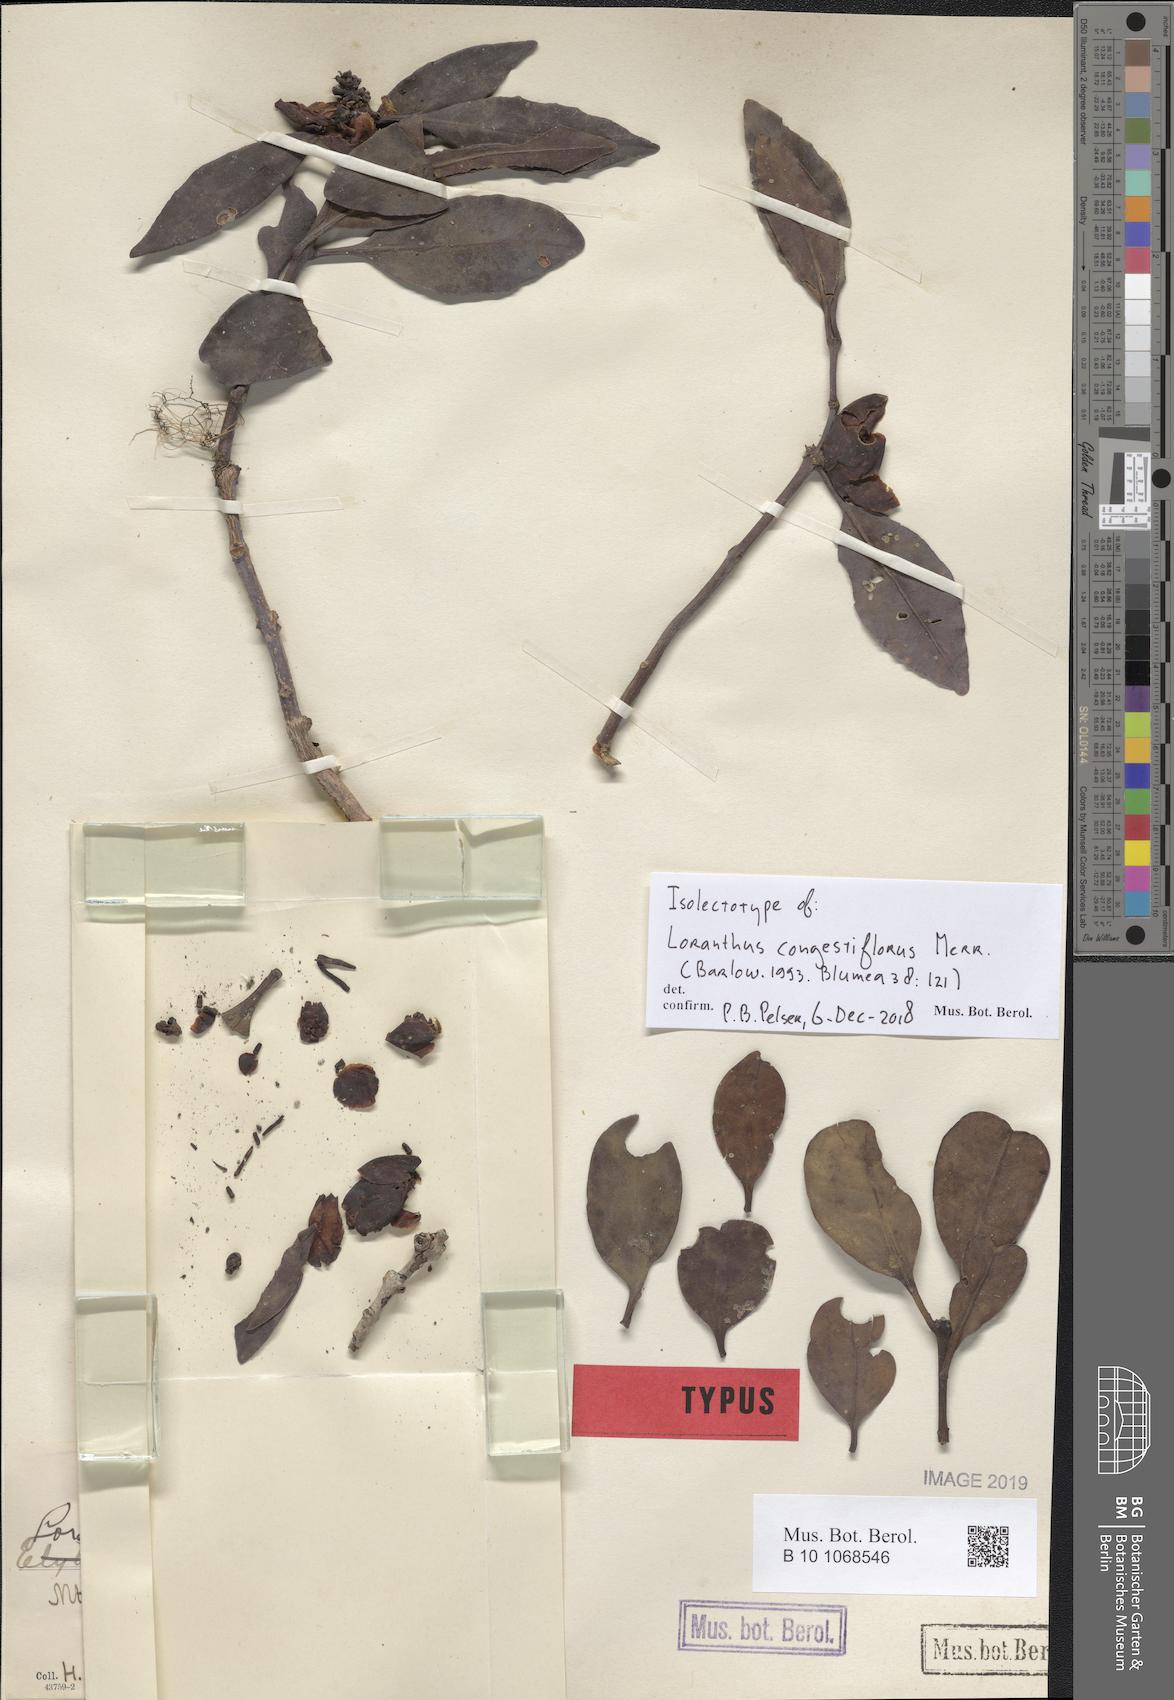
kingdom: Plantae
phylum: Tracheophyta
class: Magnoliopsida
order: Santalales
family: Loranthaceae
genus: Lepeostegeres
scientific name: Lepeostegeres congestiflorus
